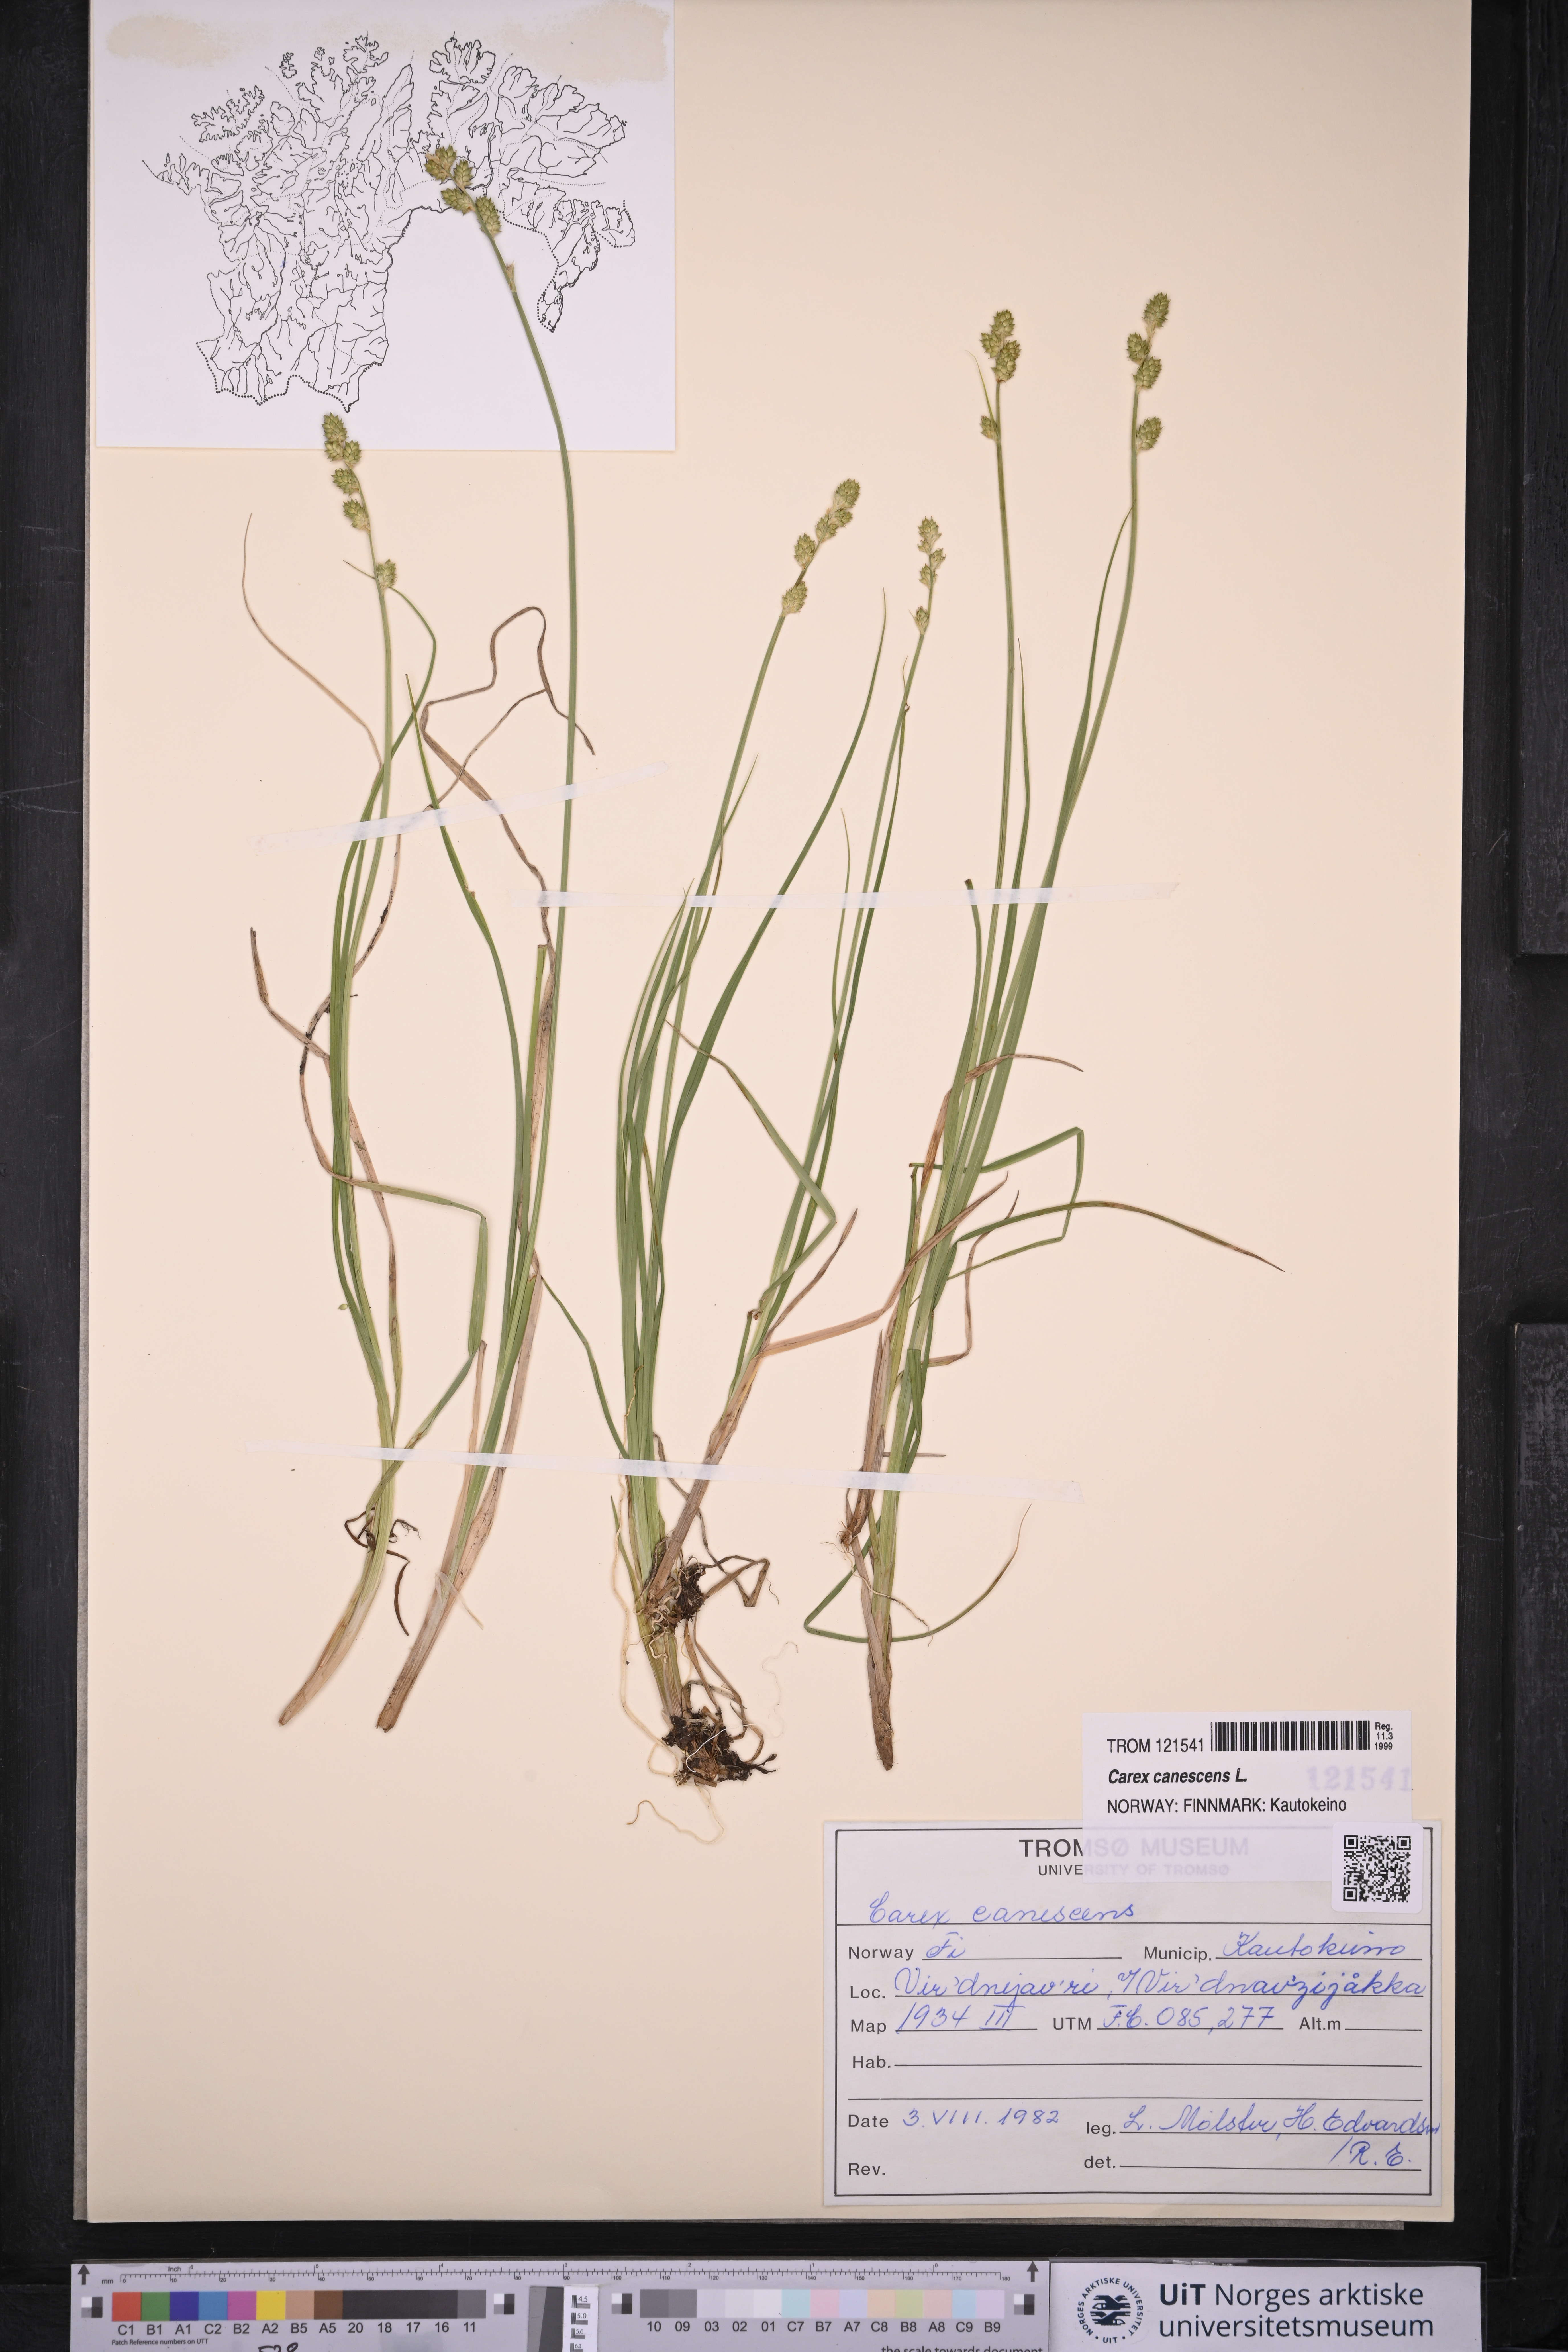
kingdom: Plantae
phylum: Tracheophyta
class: Liliopsida
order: Poales
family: Cyperaceae
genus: Carex
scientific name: Carex canescens
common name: White sedge
